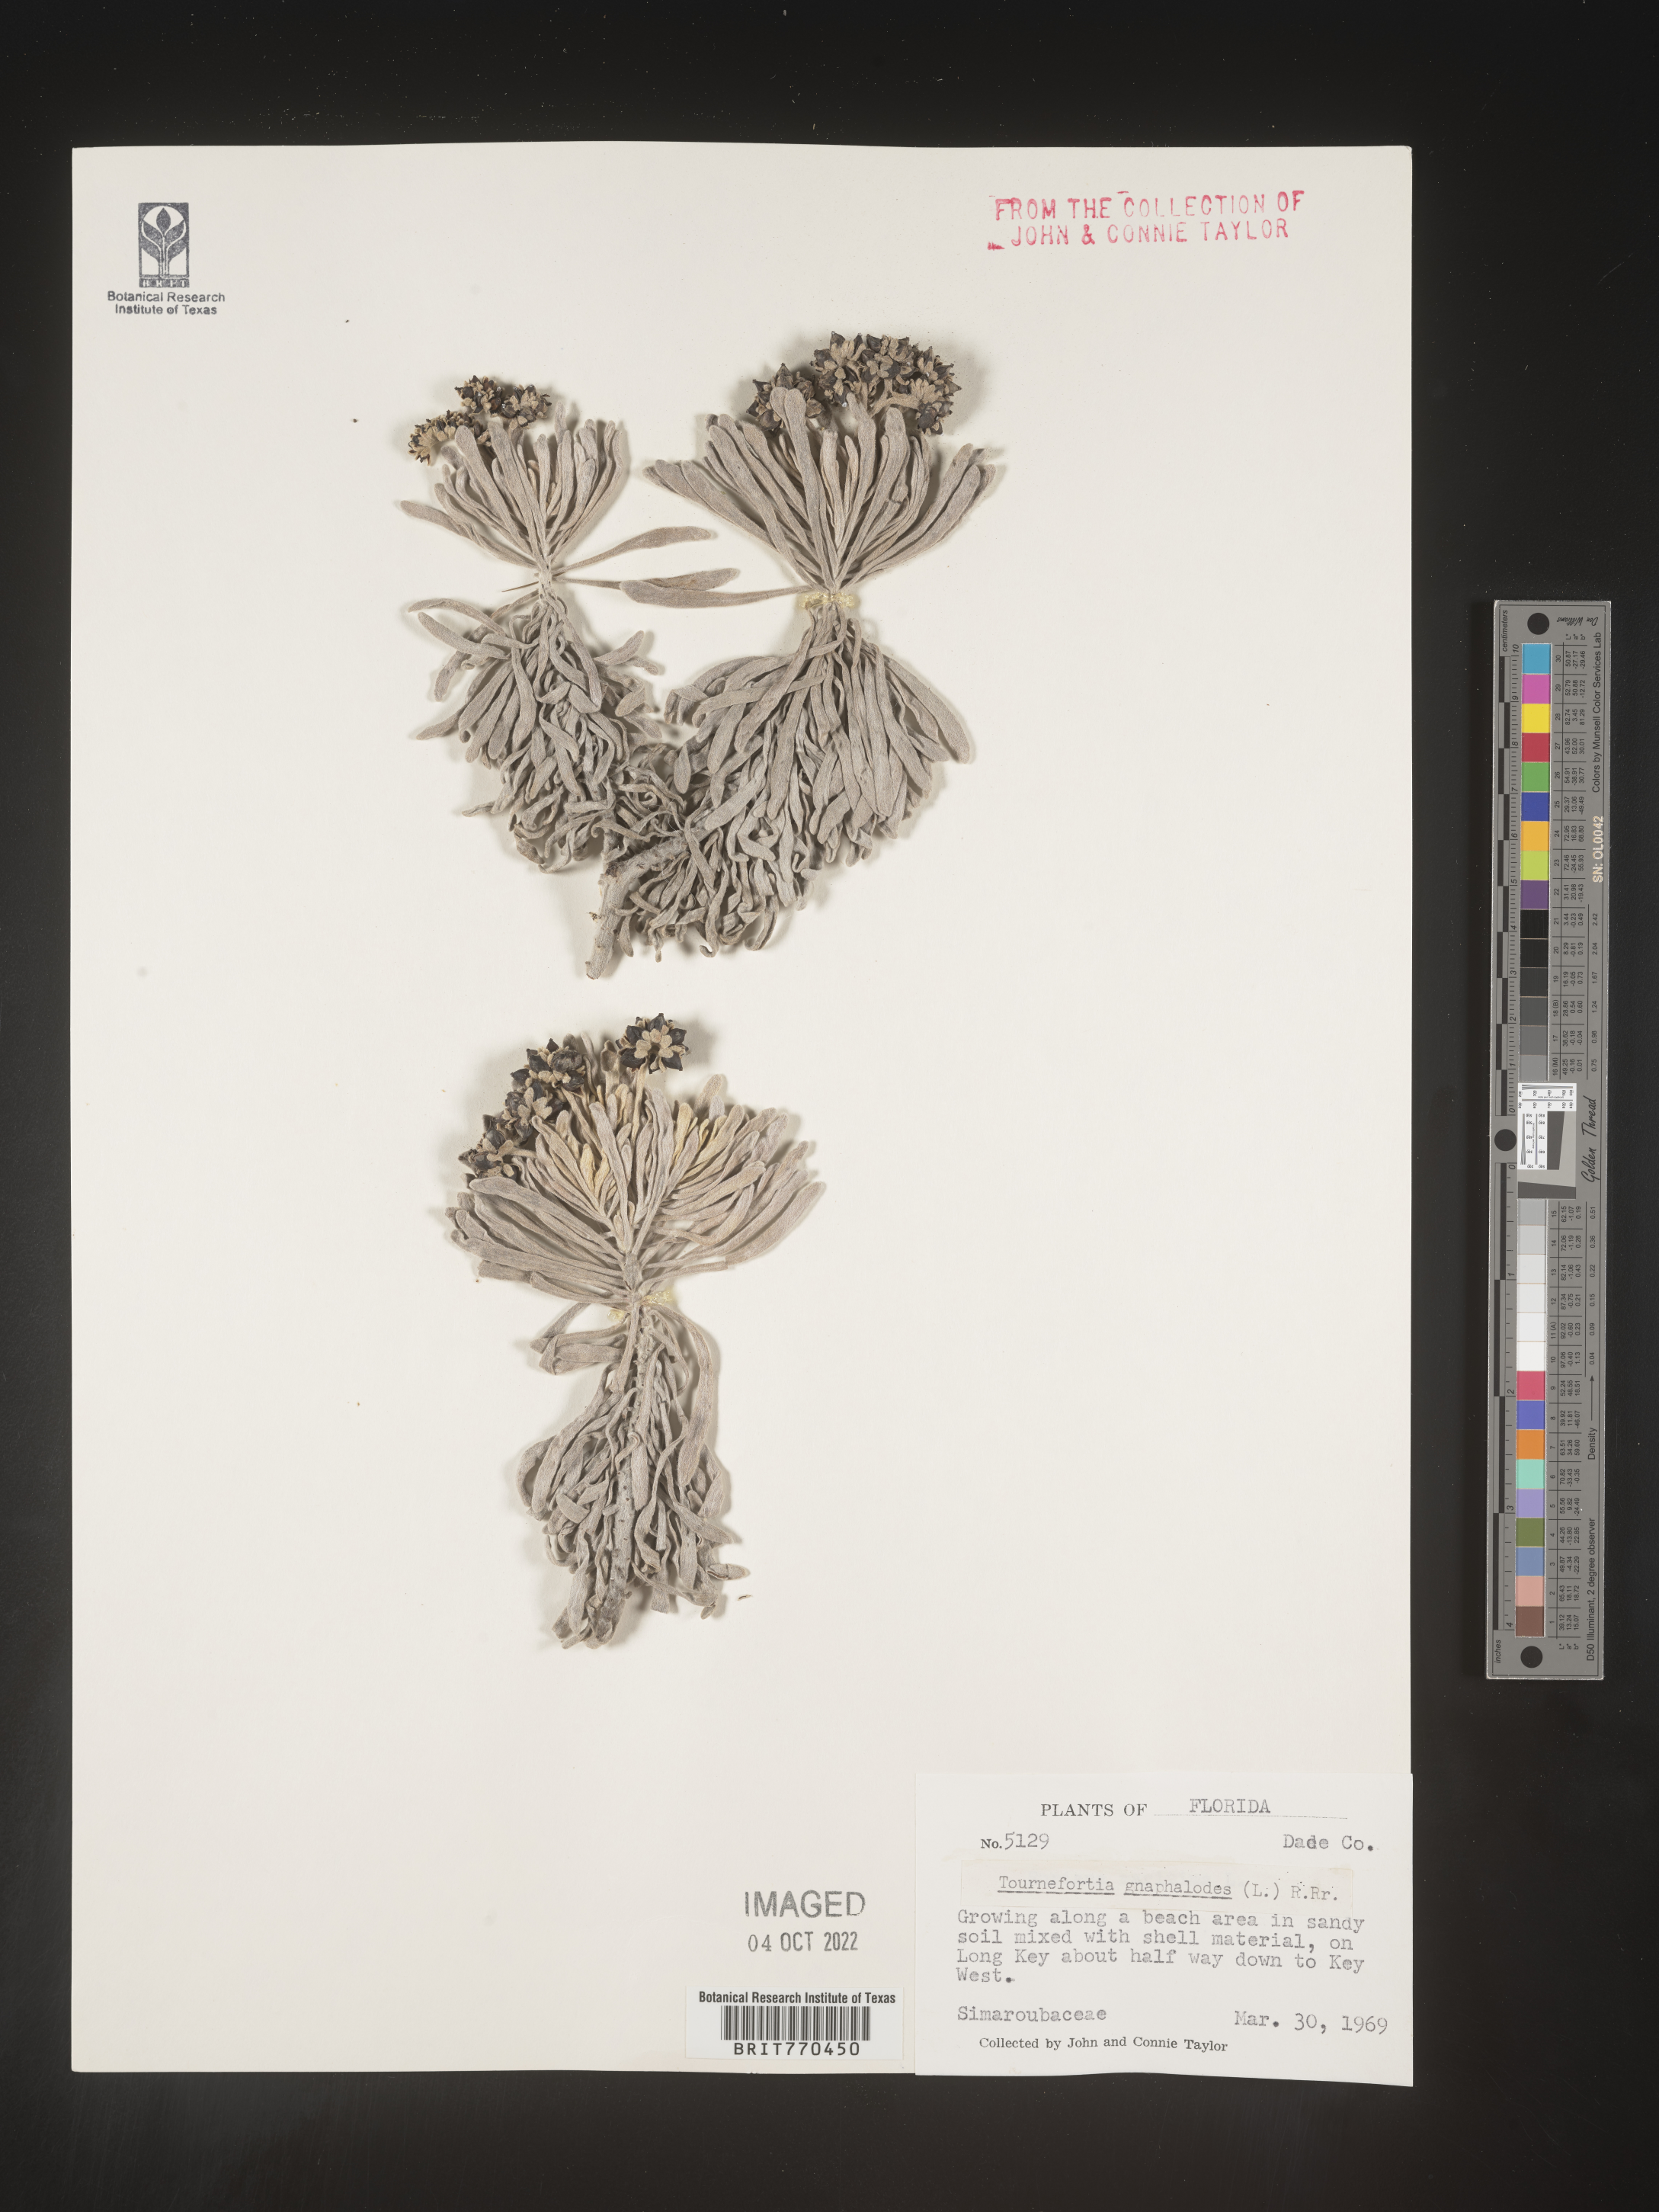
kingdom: Plantae
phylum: Tracheophyta
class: Magnoliopsida
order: Boraginales
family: Heliotropiaceae
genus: Tournefortia
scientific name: Tournefortia
